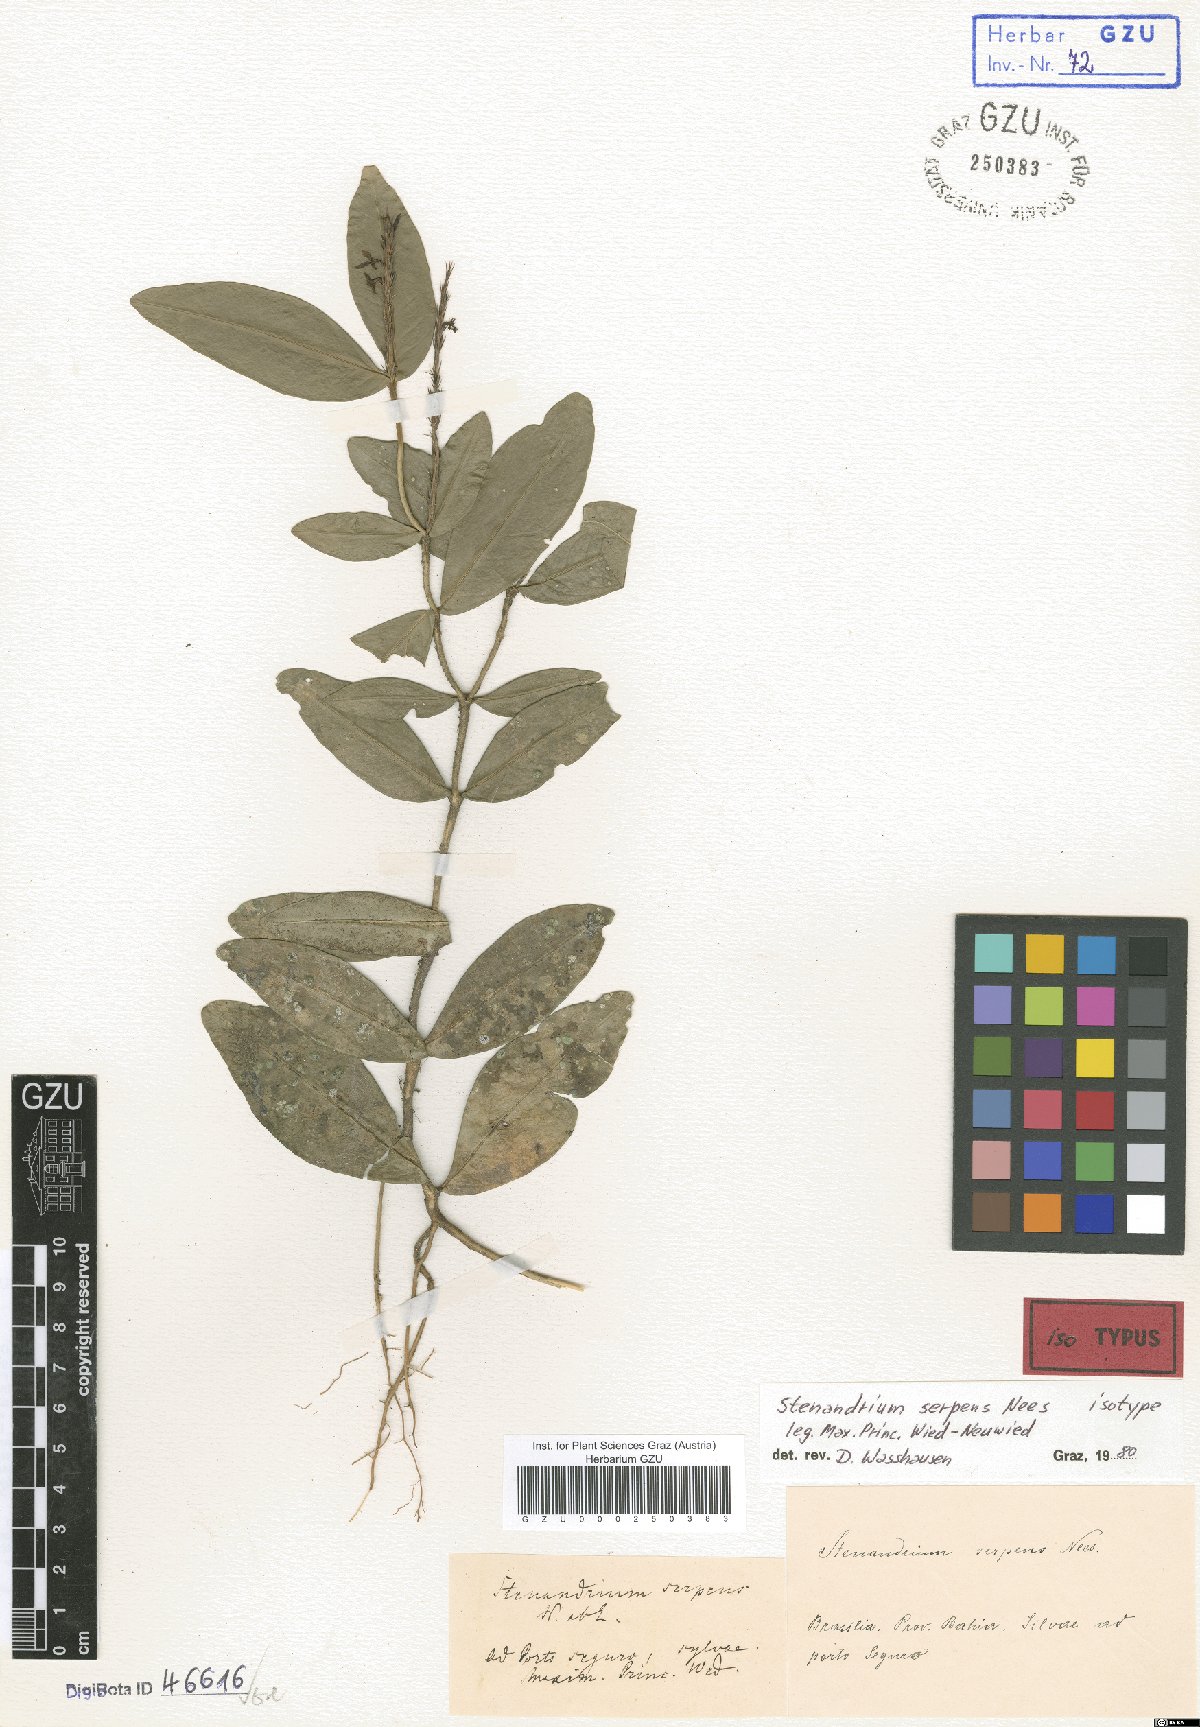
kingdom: Plantae
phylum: Tracheophyta
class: Magnoliopsida
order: Lamiales
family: Acanthaceae
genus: Stenandrium
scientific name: Stenandrium serpens
